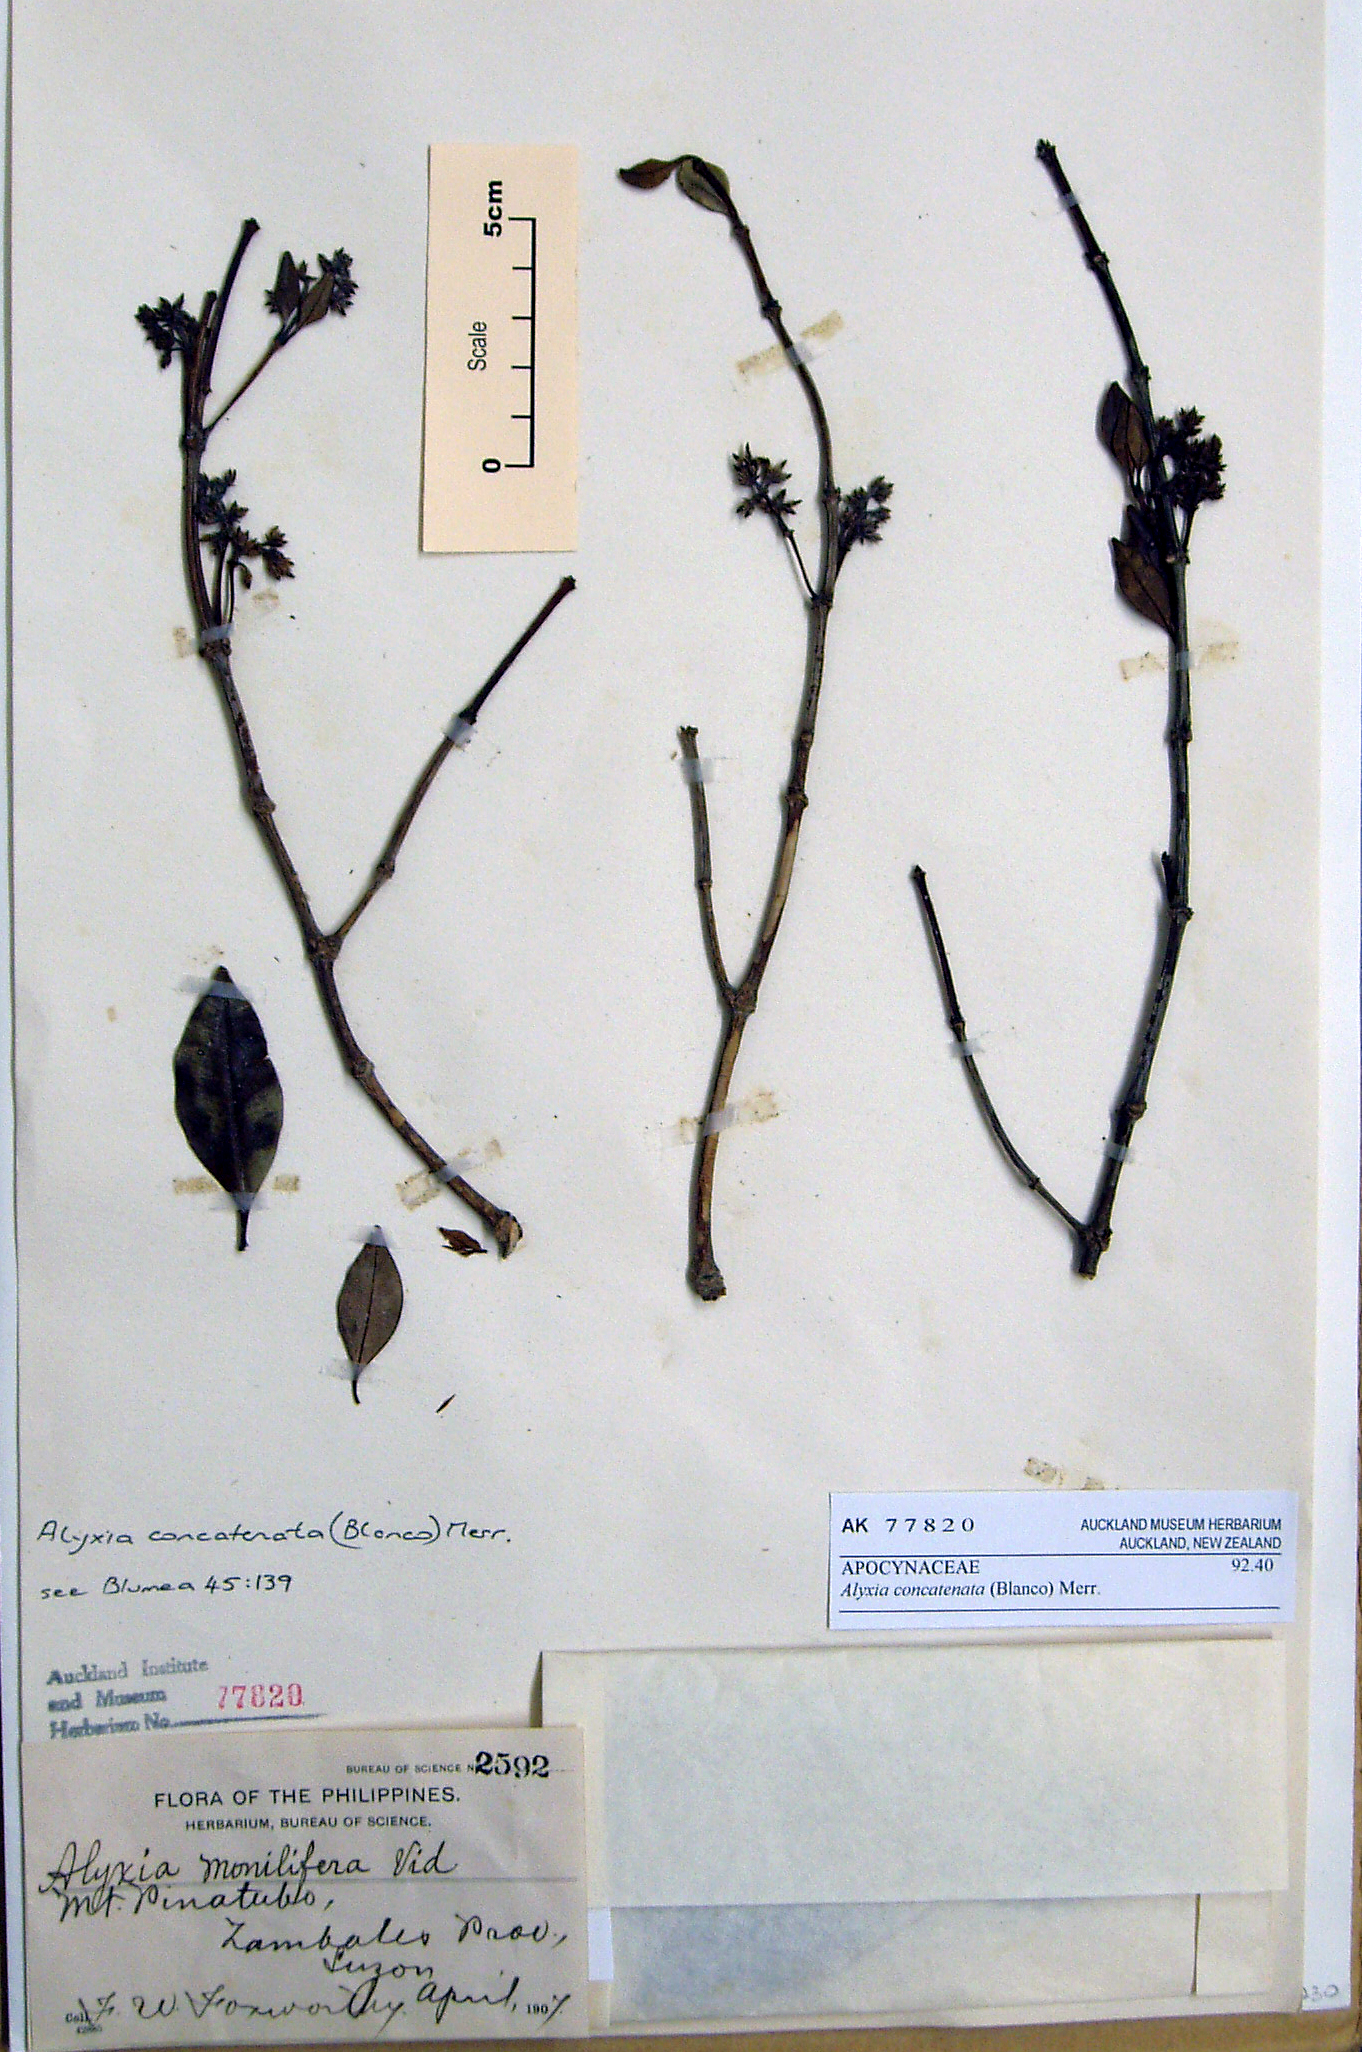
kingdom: Plantae
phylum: Tracheophyta
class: Magnoliopsida
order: Gentianales
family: Apocynaceae
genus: Alyxia
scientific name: Alyxia concatenata
